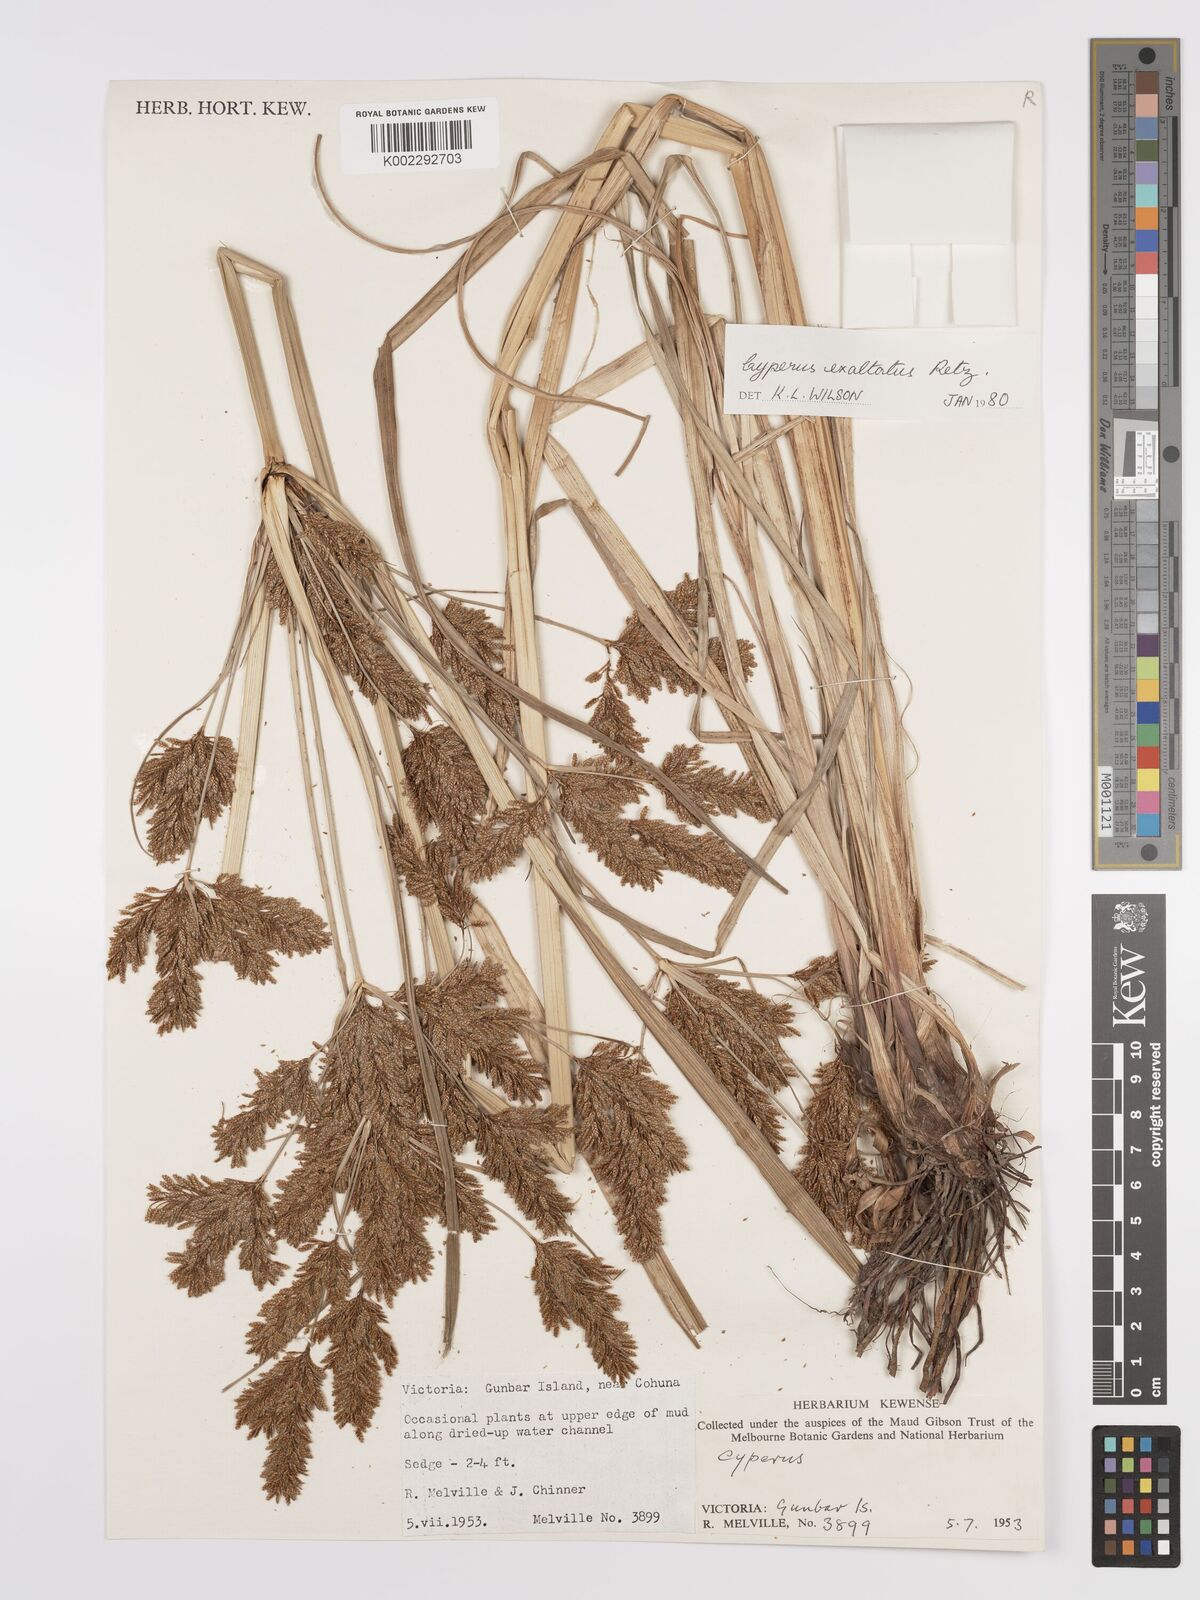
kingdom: Plantae
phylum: Tracheophyta
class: Liliopsida
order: Poales
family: Cyperaceae
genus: Cyperus
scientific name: Cyperus exaltatus
